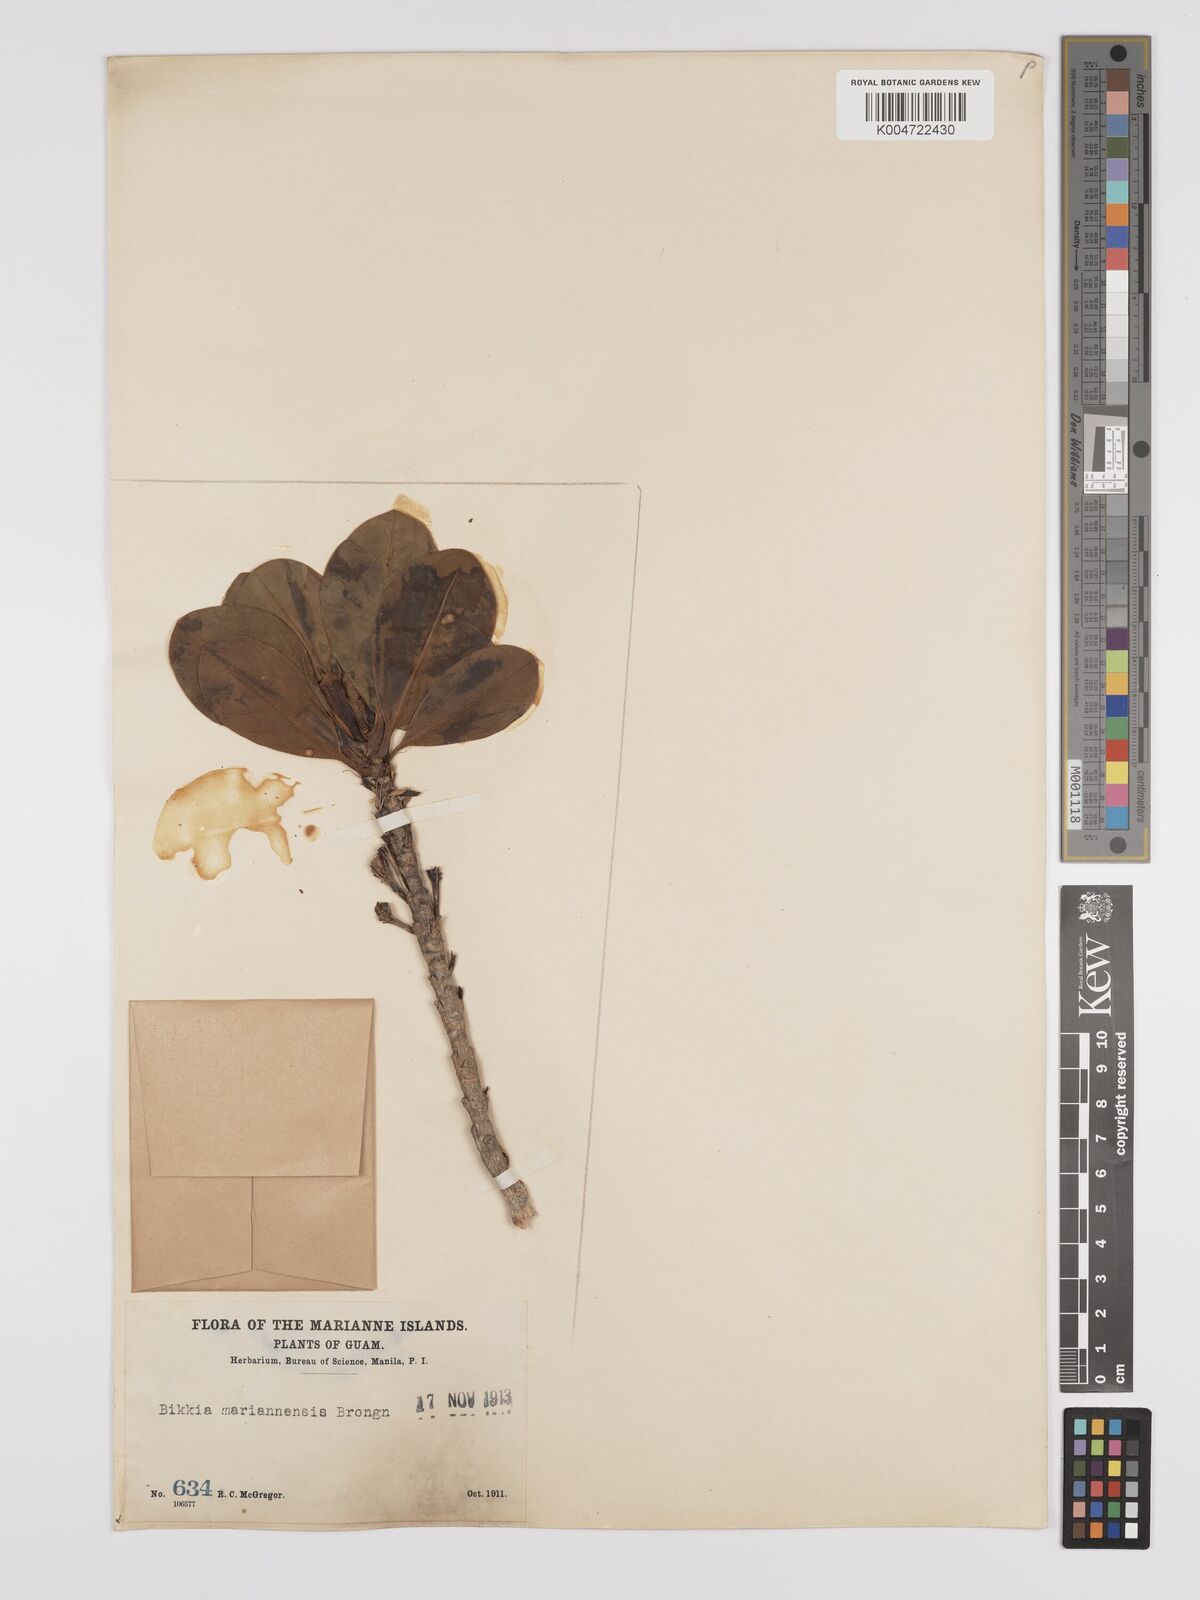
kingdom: Plantae
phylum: Tracheophyta
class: Magnoliopsida
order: Gentianales
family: Rubiaceae
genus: Bikkia
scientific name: Bikkia
